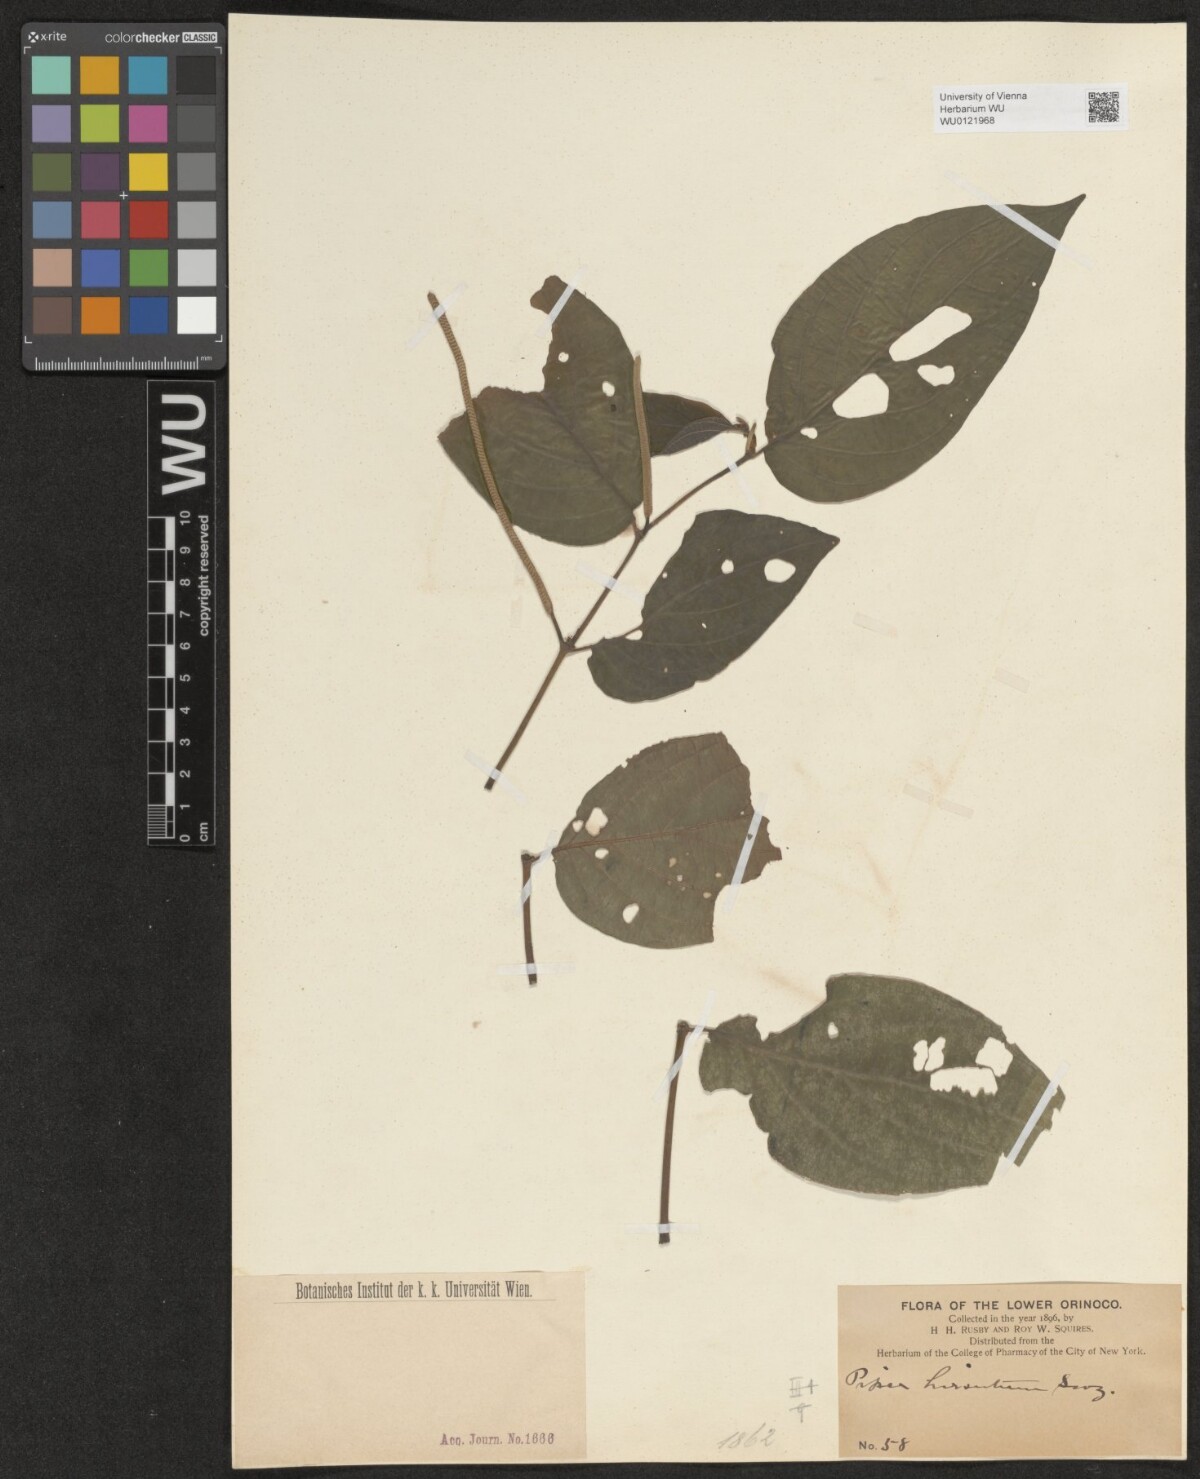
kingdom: Plantae
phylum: Tracheophyta
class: Magnoliopsida
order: Piperales
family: Piperaceae
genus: Piper
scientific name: Piper hispidum
